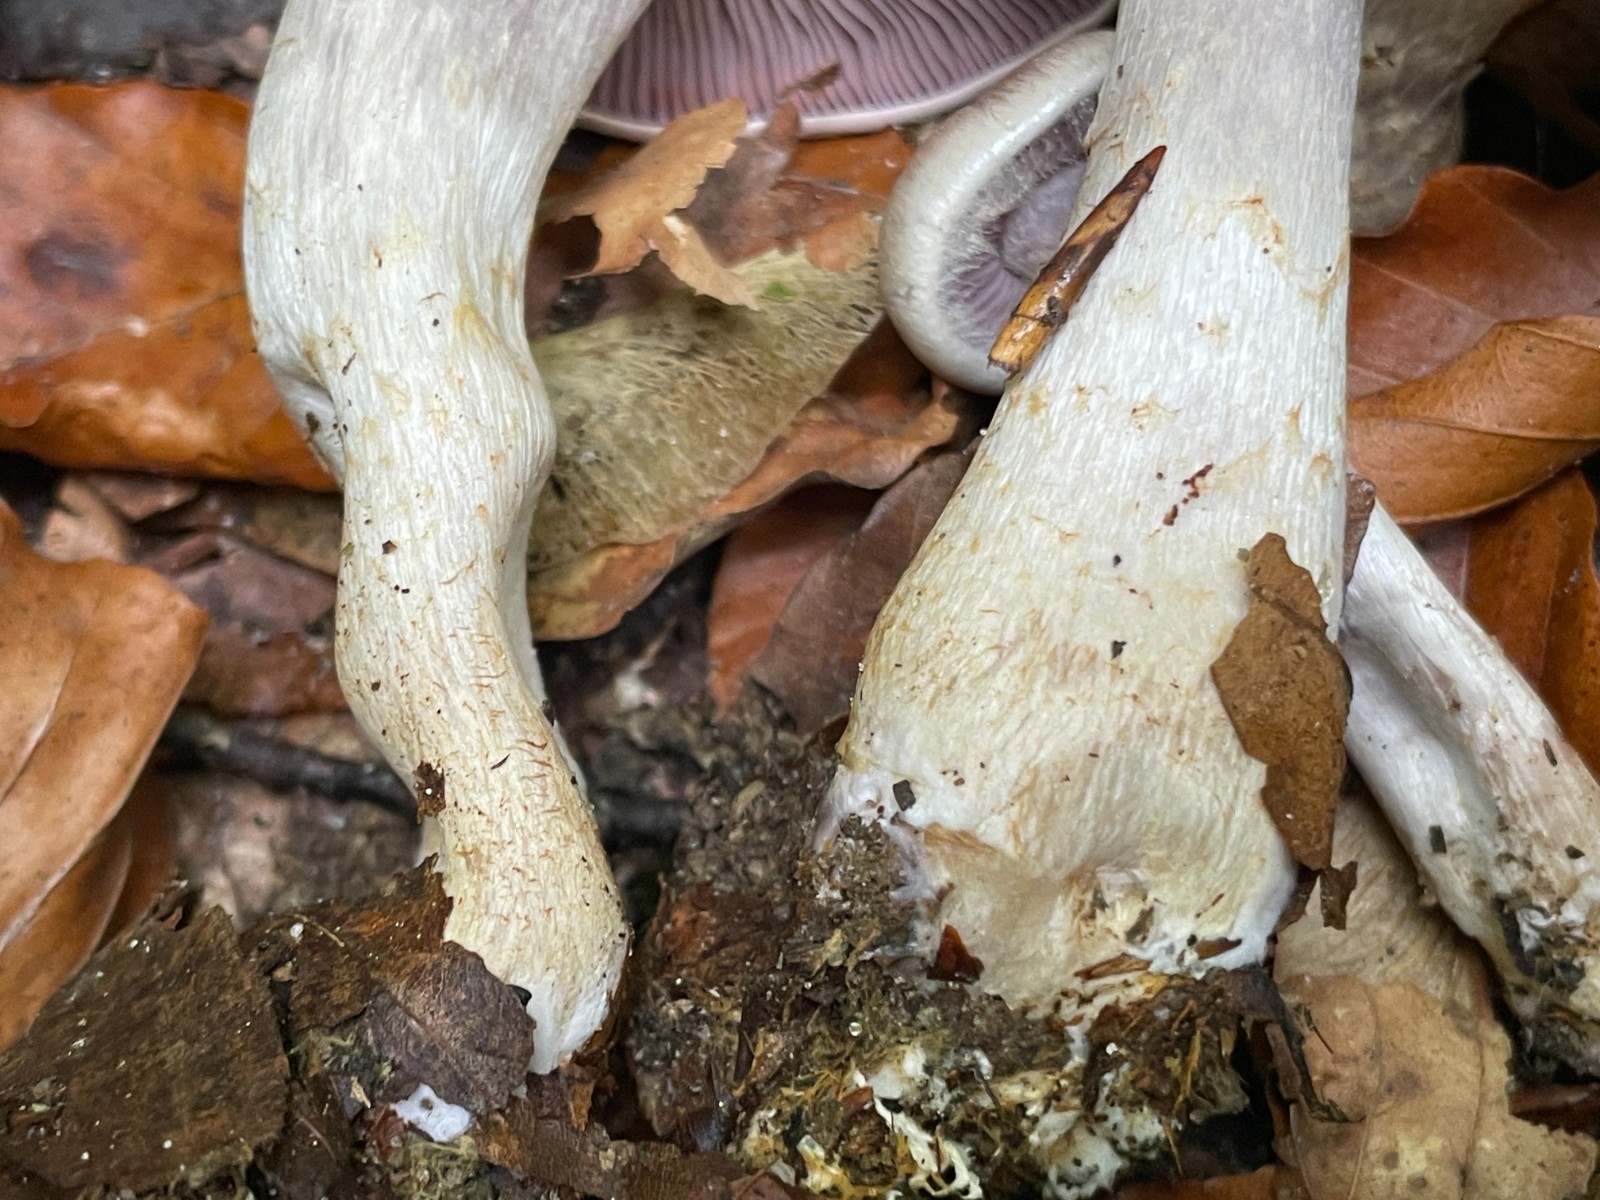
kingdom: Fungi
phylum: Basidiomycota
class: Agaricomycetes
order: Agaricales
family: Cortinariaceae
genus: Cortinarius
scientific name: Cortinarius
